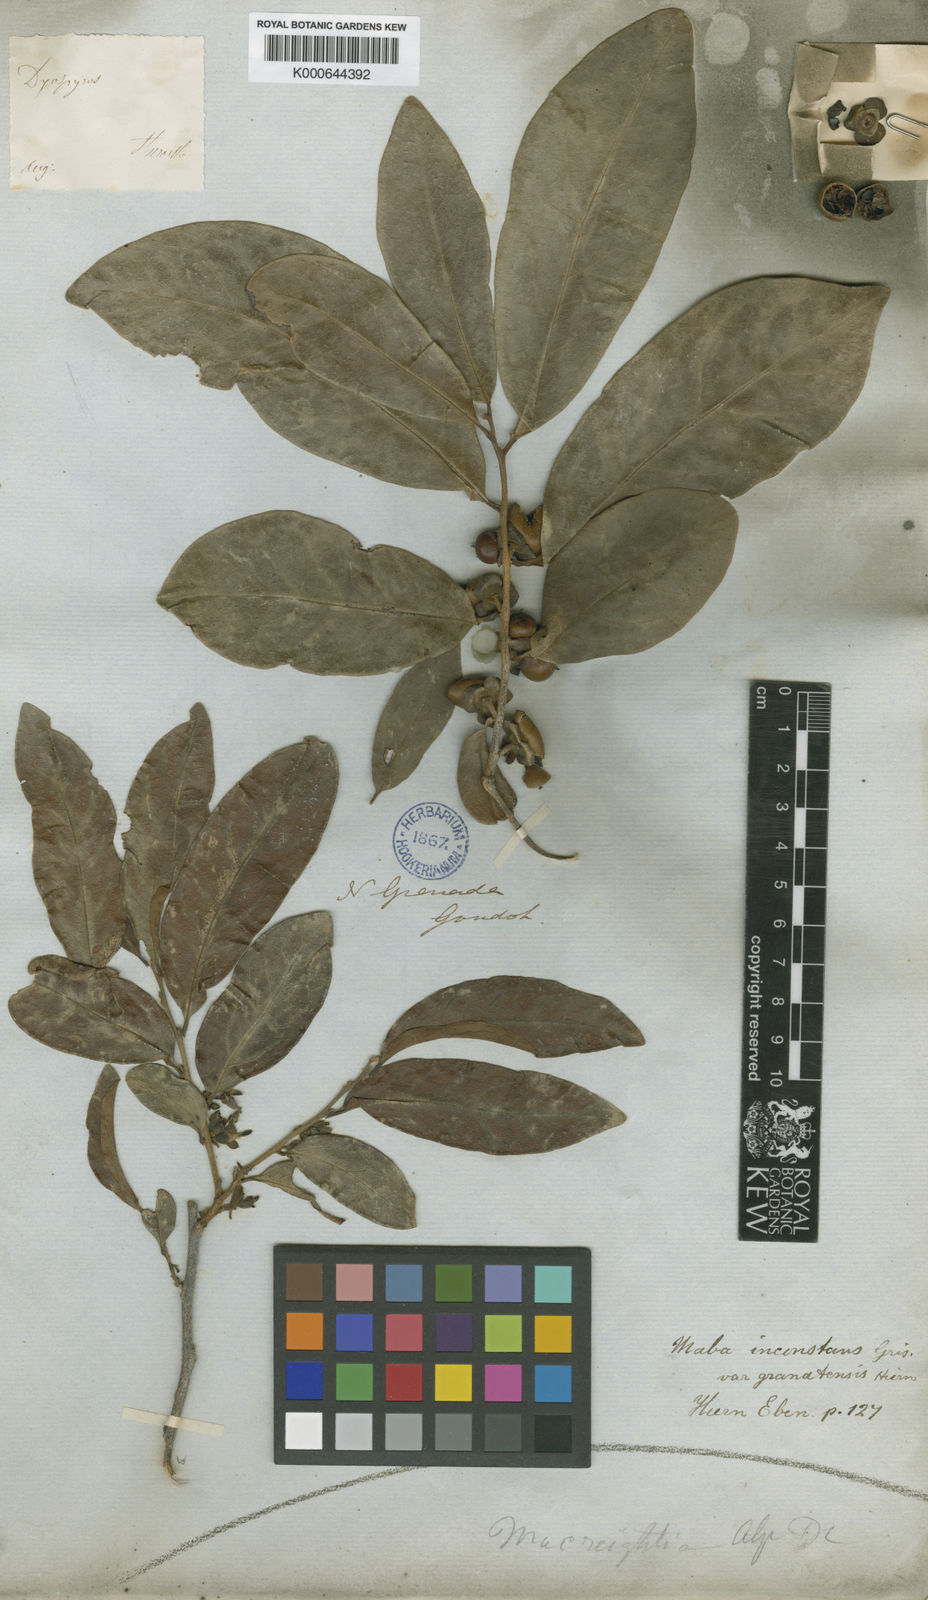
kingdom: Plantae
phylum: Tracheophyta
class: Magnoliopsida
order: Ericales
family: Ebenaceae
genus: Diospyros
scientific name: Diospyros inconstans
